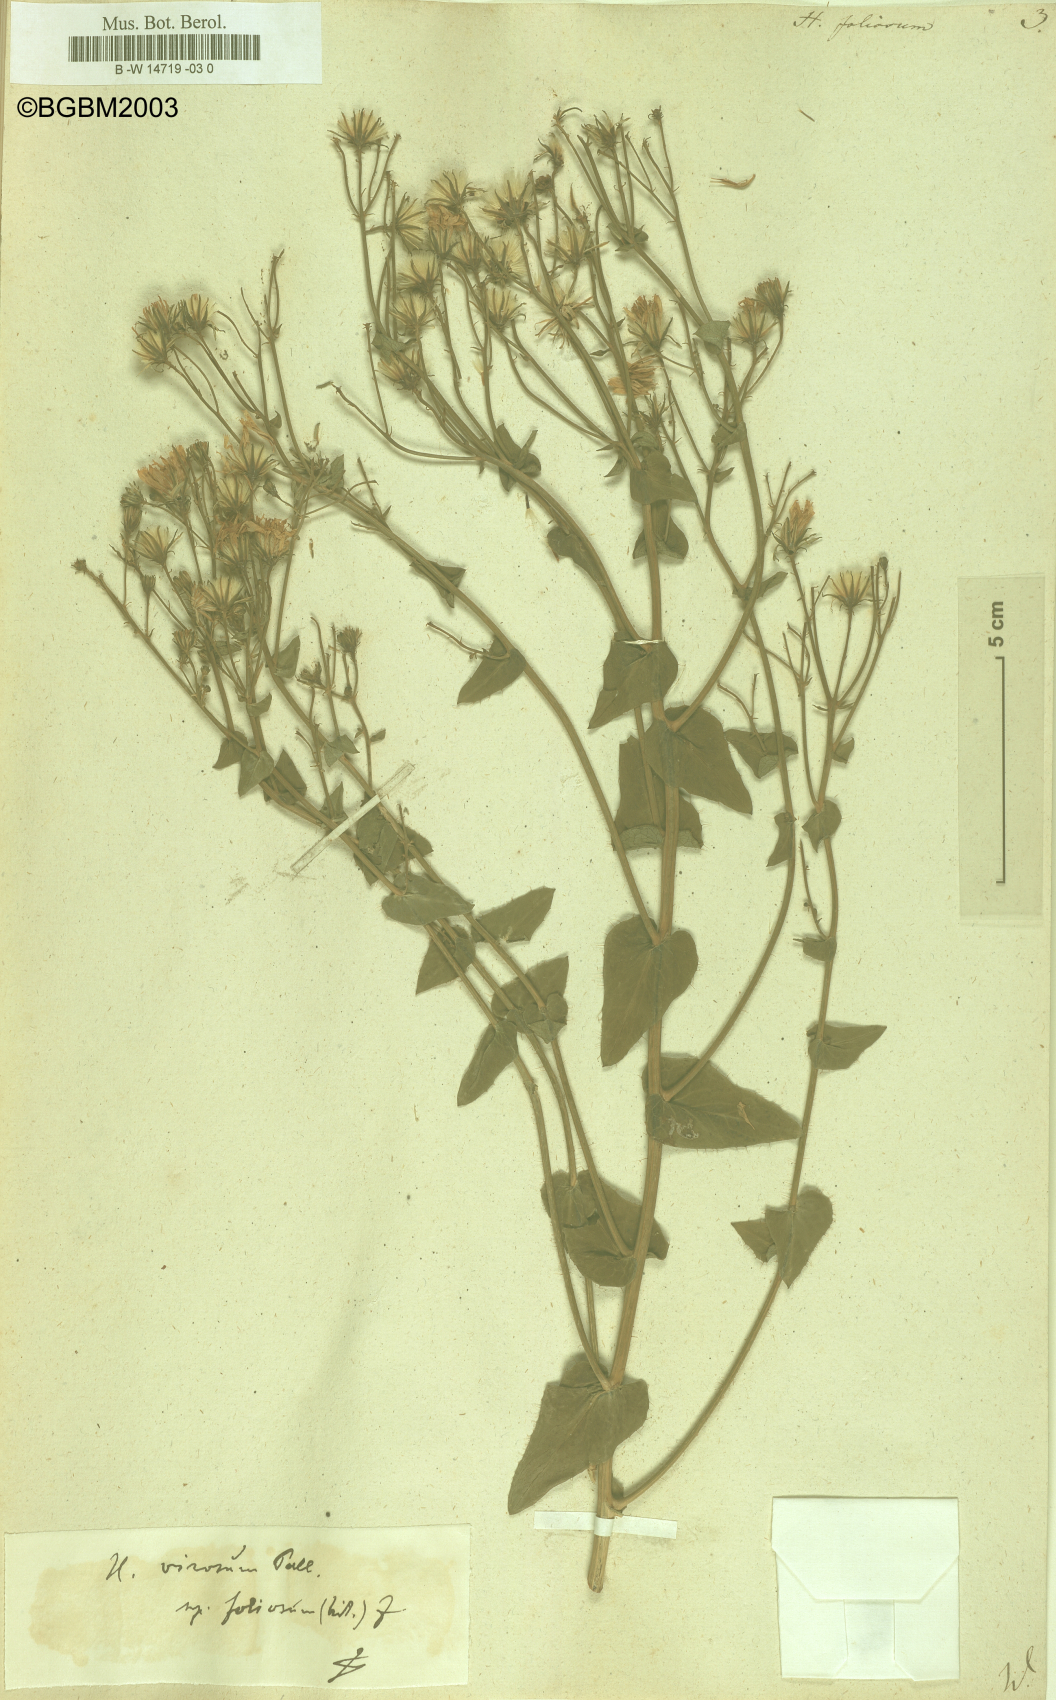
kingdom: Plantae
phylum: Tracheophyta
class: Magnoliopsida
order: Asterales
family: Asteraceae
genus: Hieracium
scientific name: Hieracium
